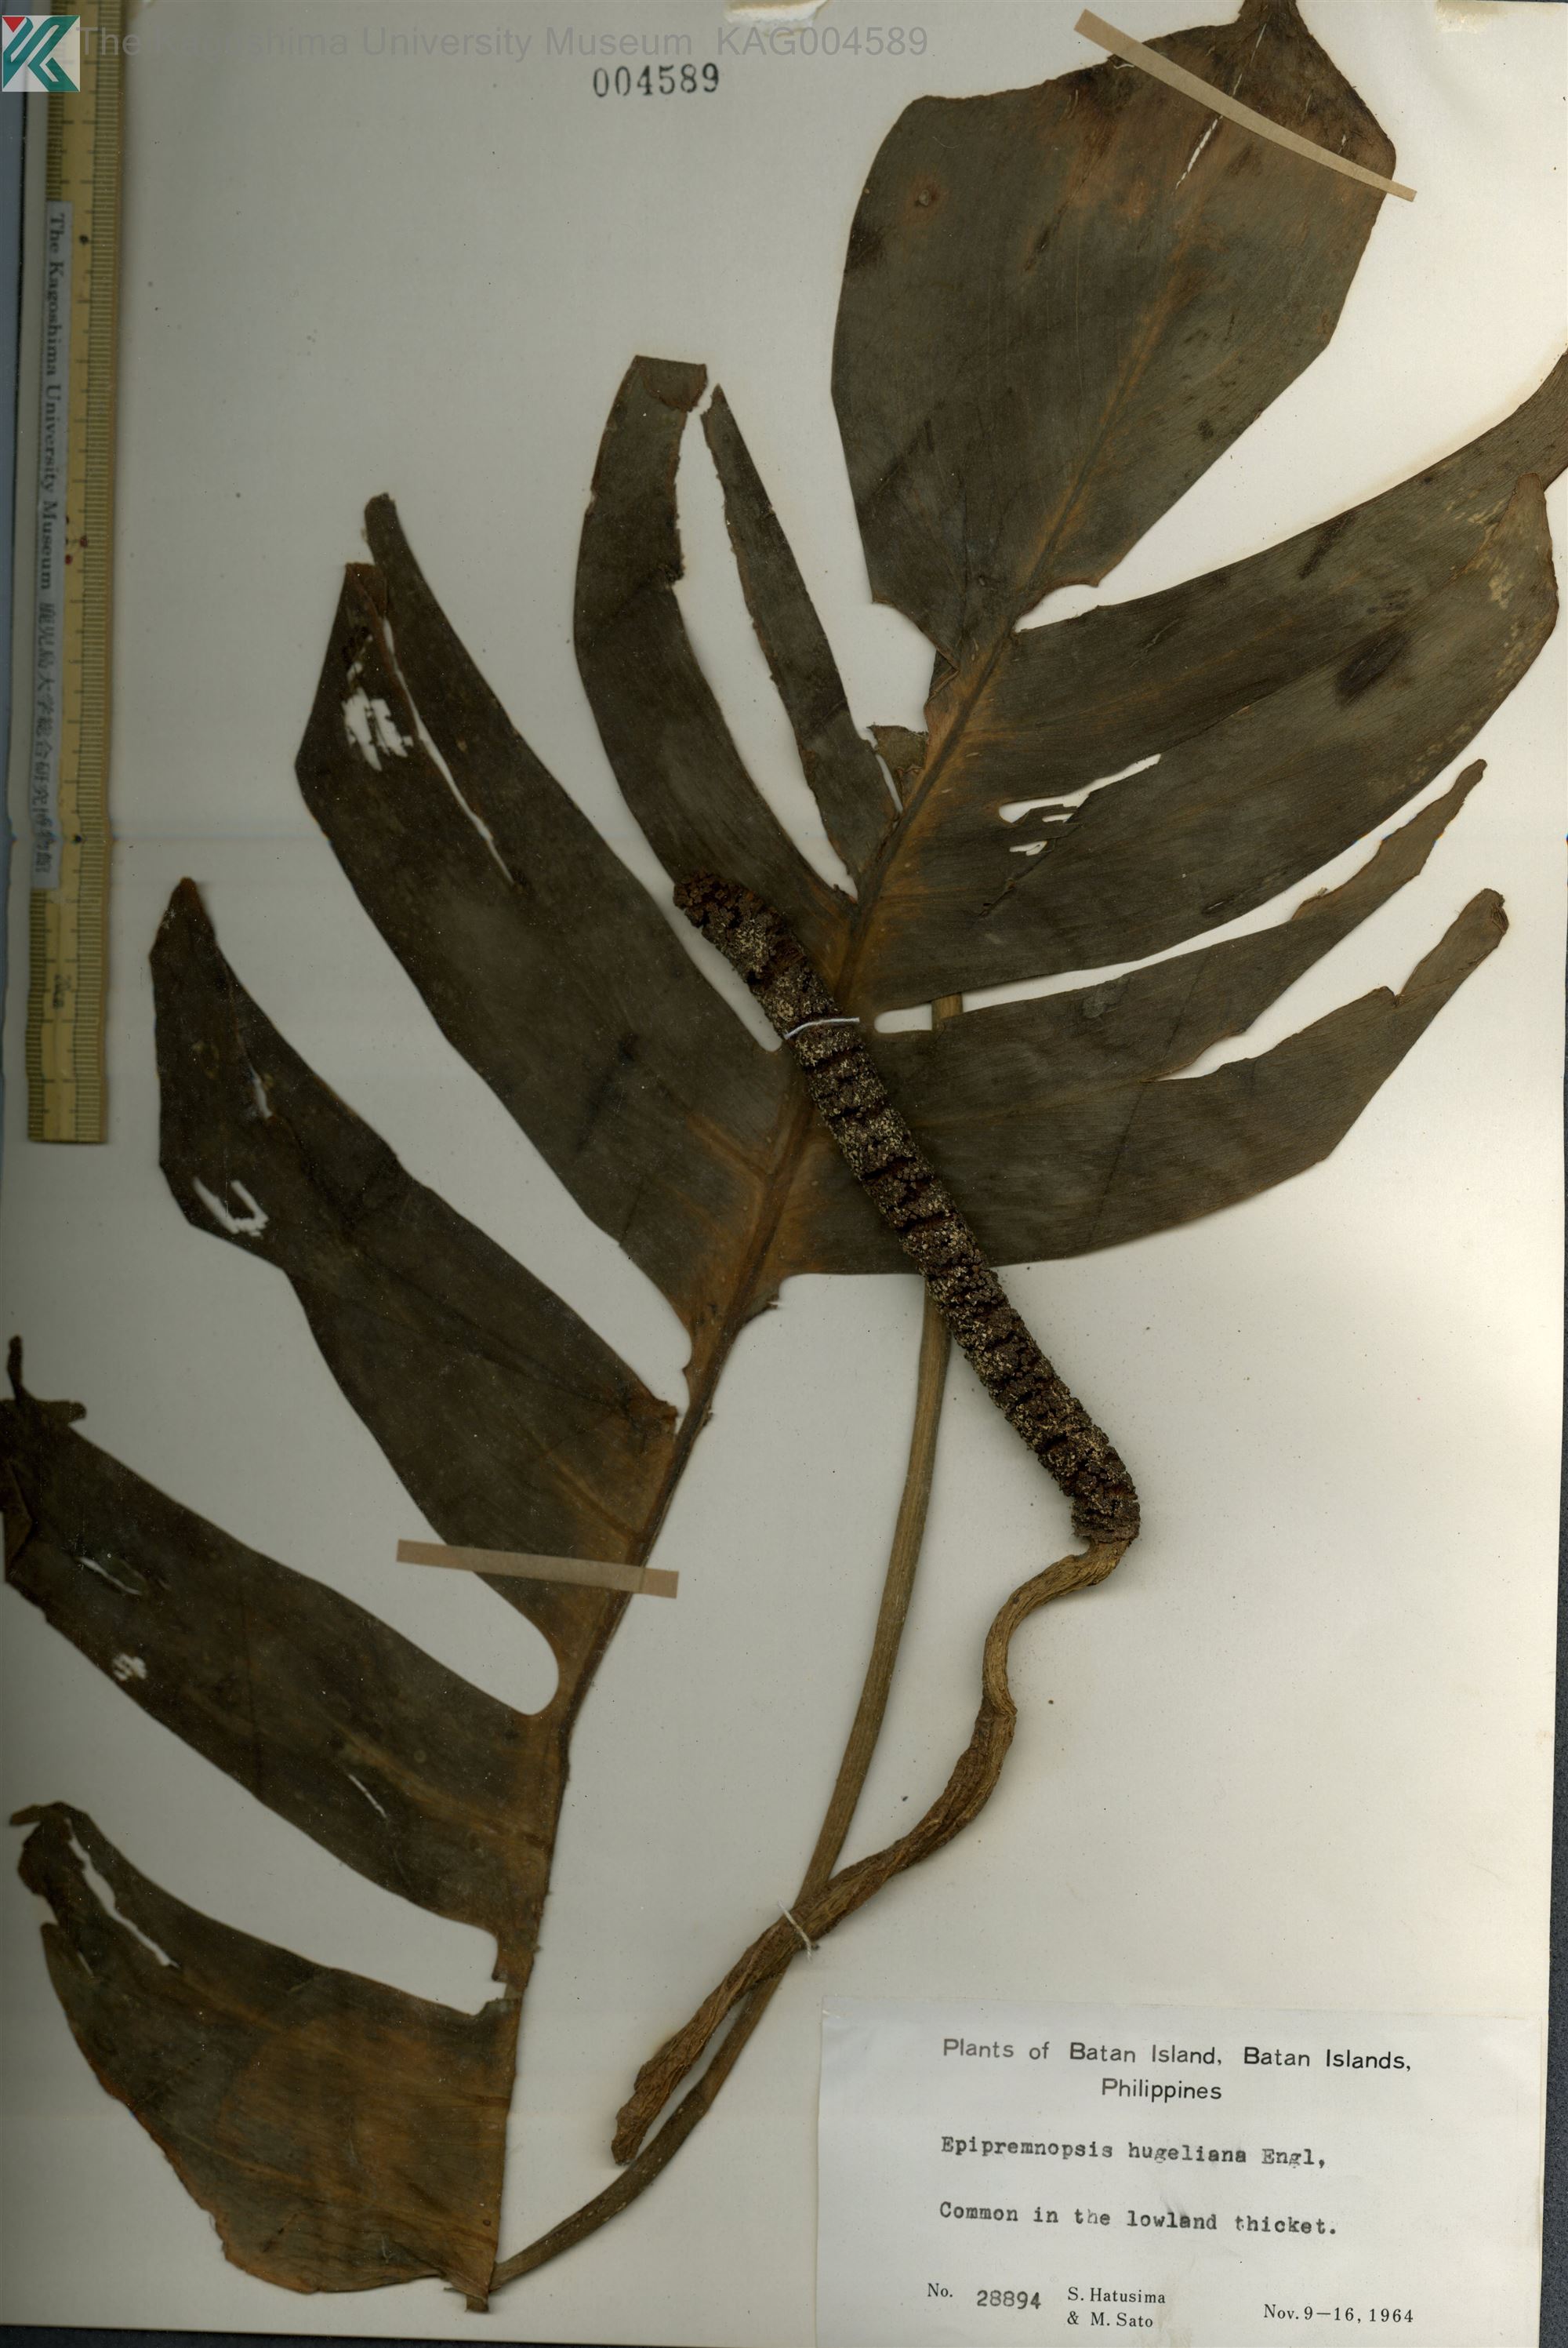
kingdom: Plantae
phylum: Tracheophyta
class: Liliopsida
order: Alismatales
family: Araceae
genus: Amydrium
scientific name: Amydrium Epipremnopsis huegeliana
